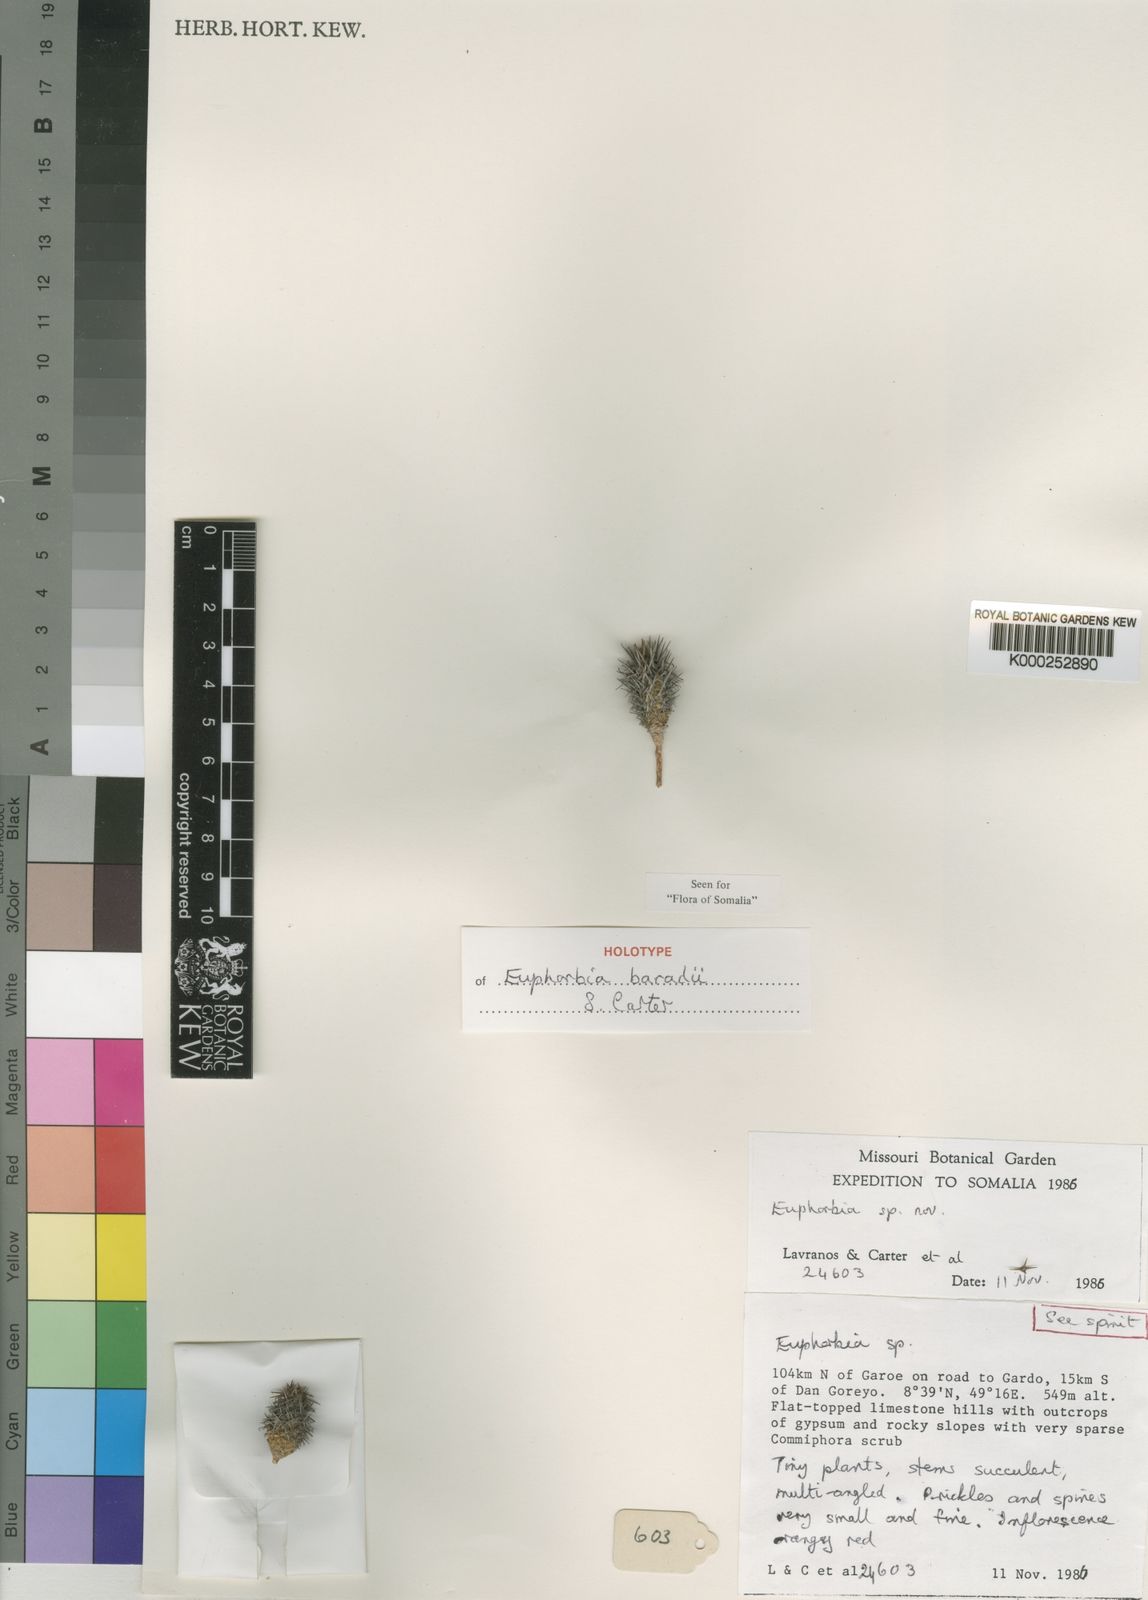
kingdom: Plantae
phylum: Tracheophyta
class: Magnoliopsida
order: Malpighiales
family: Euphorbiaceae
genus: Euphorbia
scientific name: Euphorbia baradii
